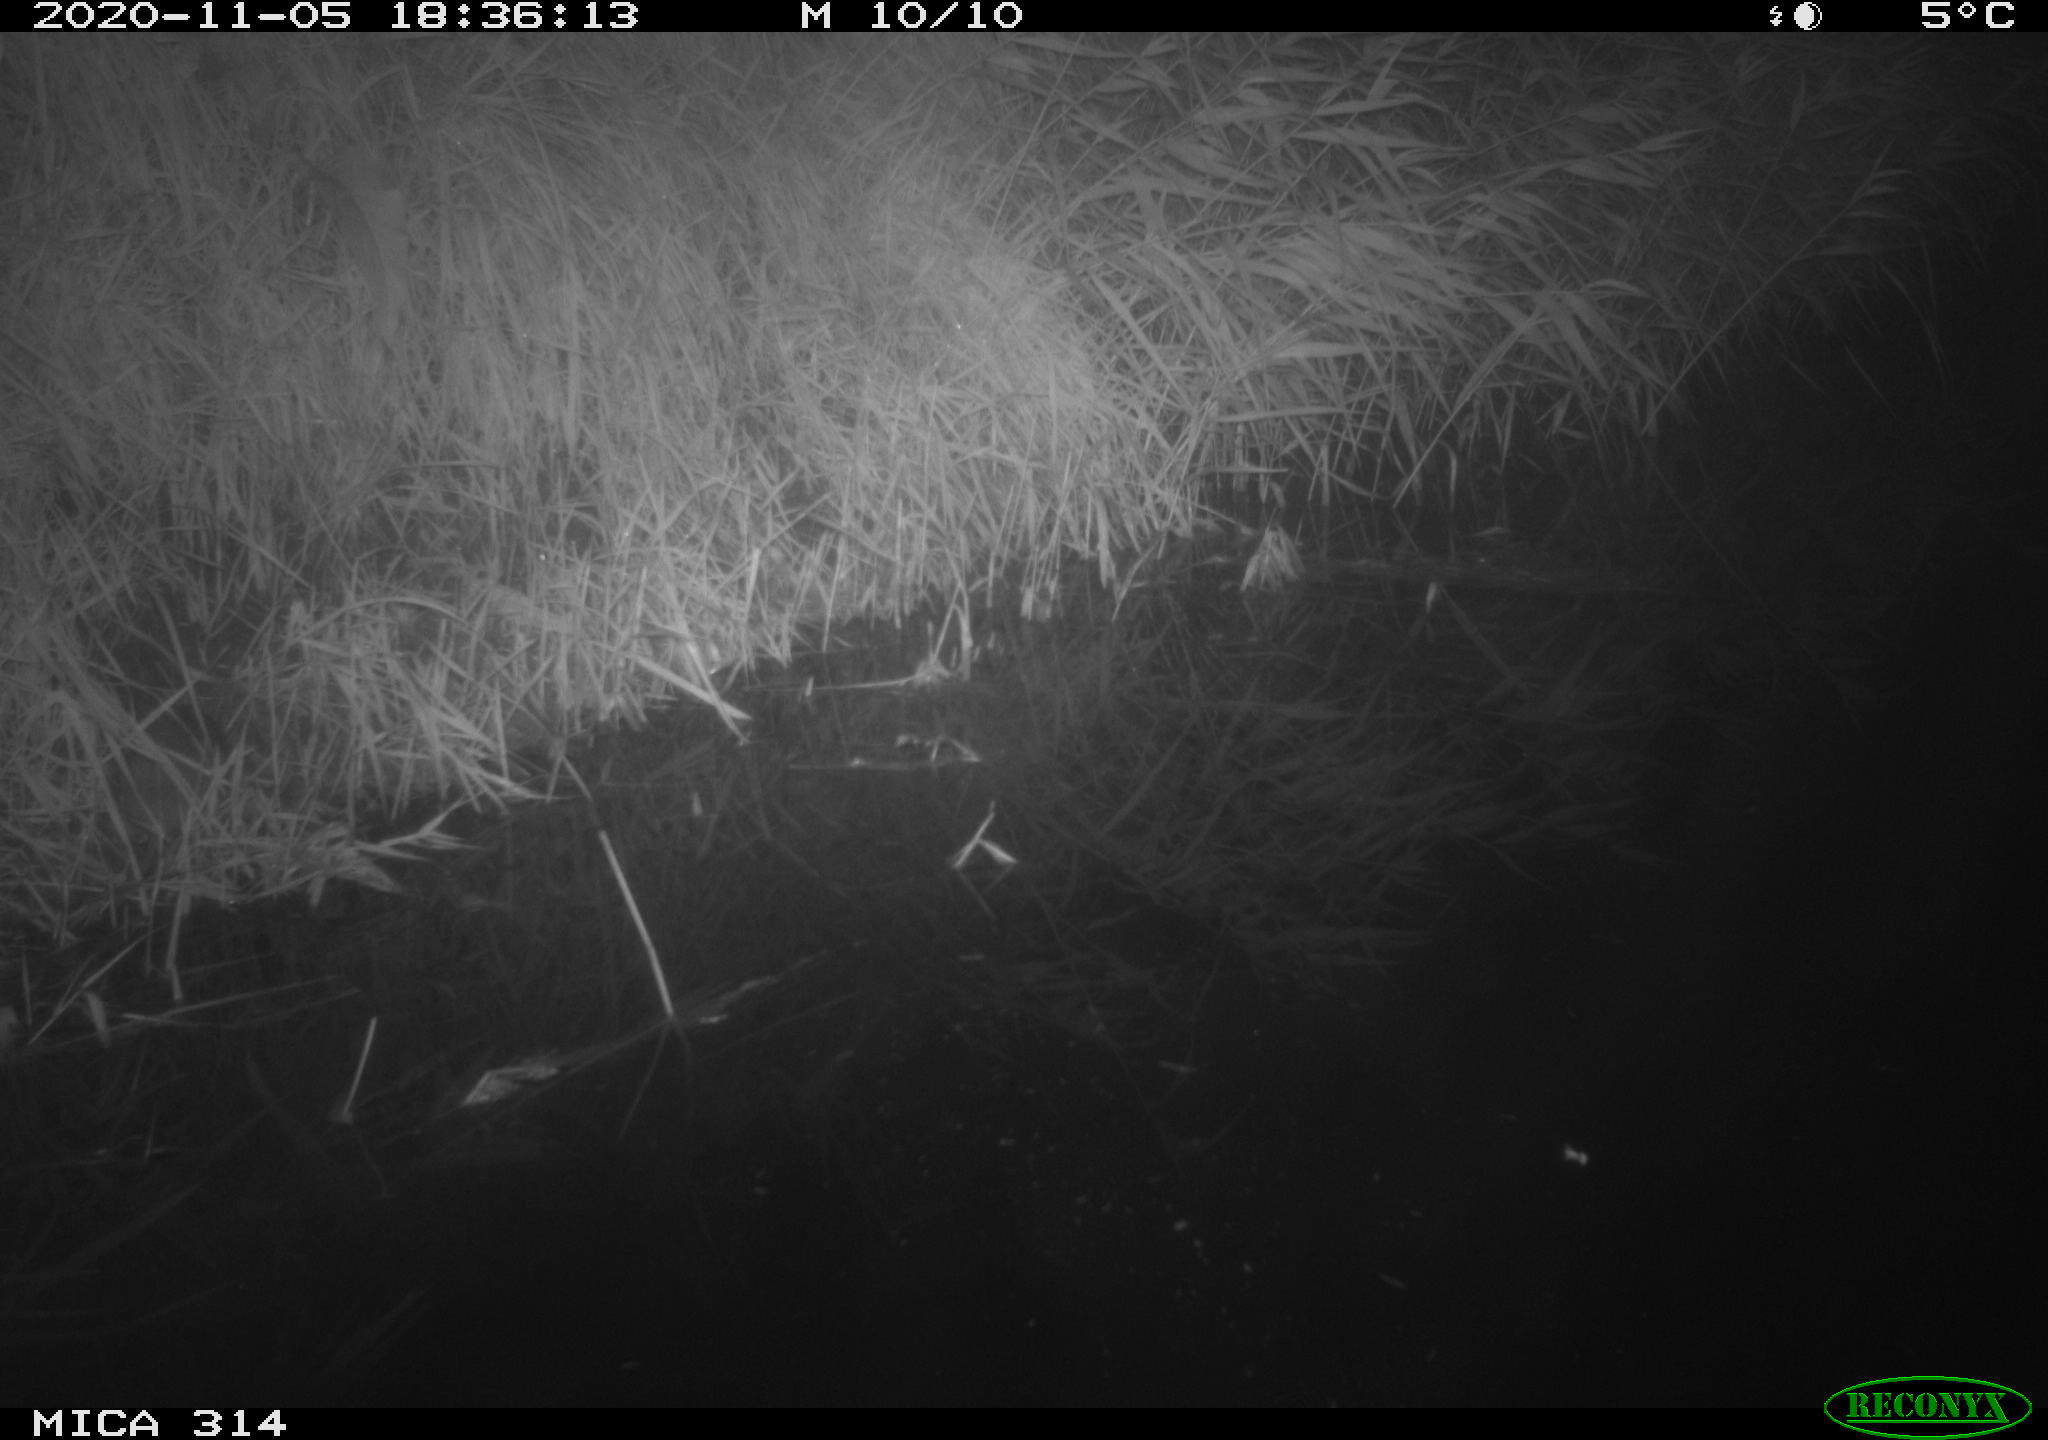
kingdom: Animalia
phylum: Chordata
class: Mammalia
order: Rodentia
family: Muridae
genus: Rattus
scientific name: Rattus norvegicus
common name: Brown rat
